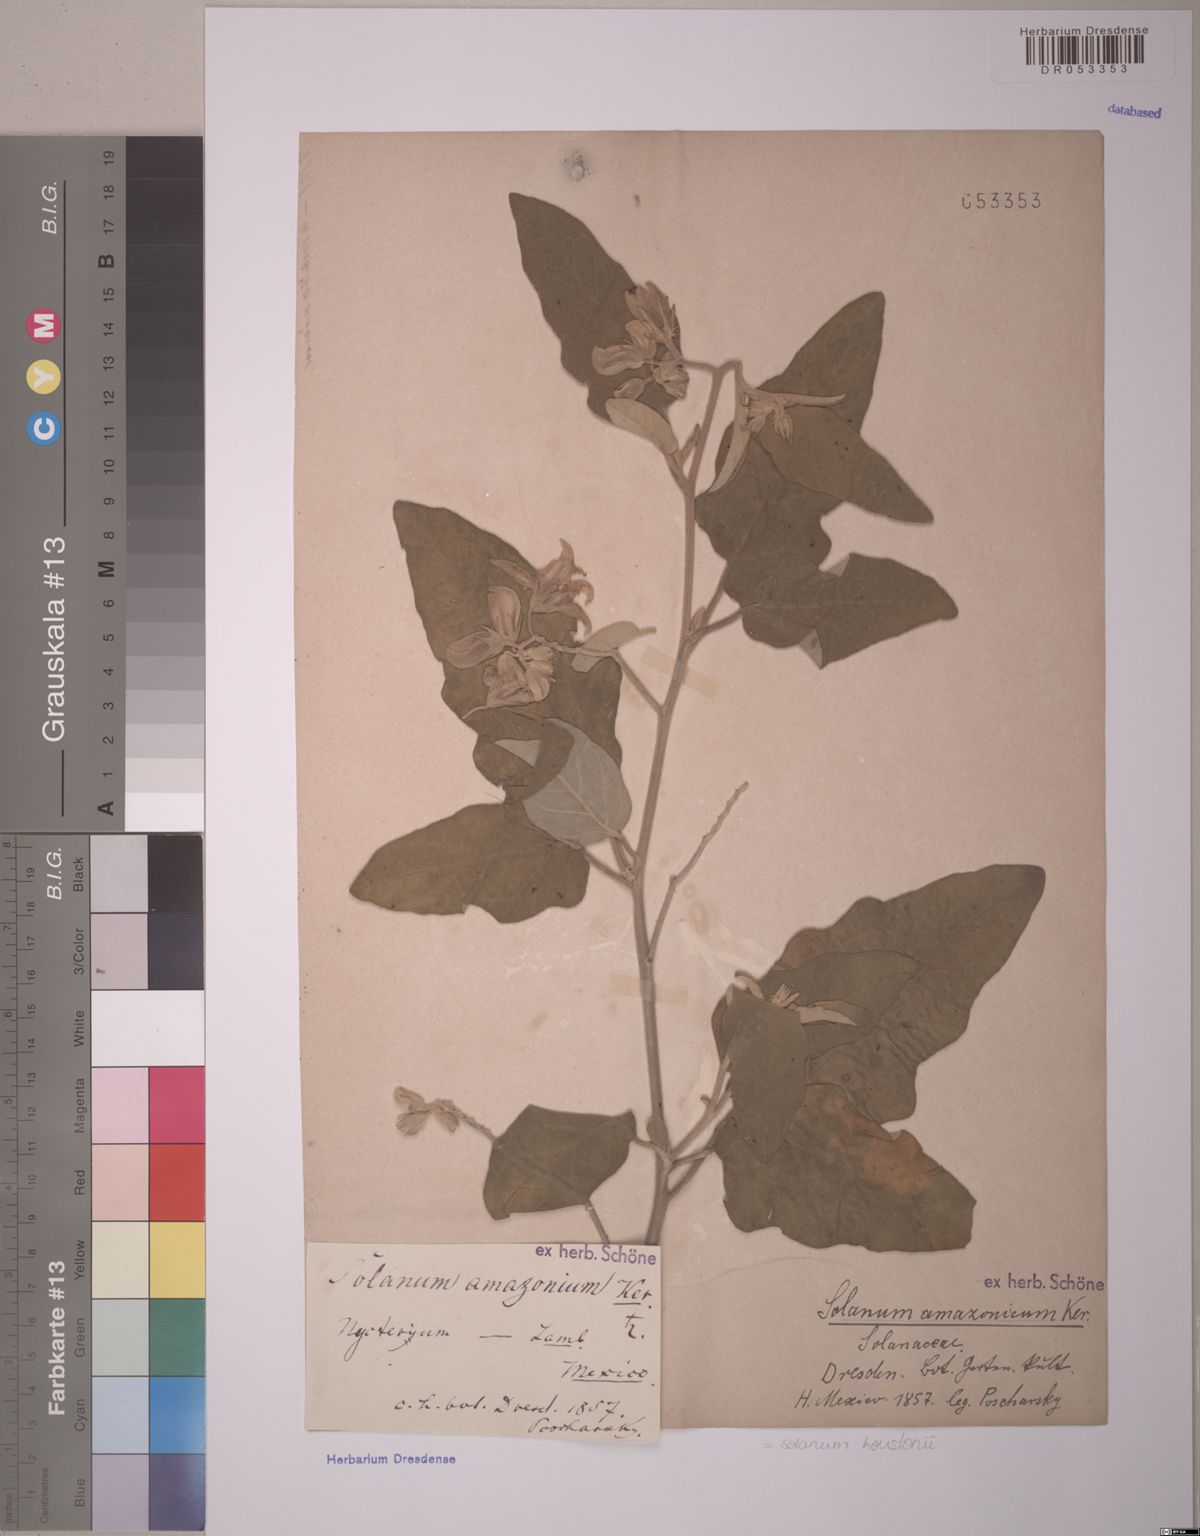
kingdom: Plantae
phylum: Tracheophyta
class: Magnoliopsida
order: Solanales
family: Solanaceae
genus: Solanum
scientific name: Solanum houstonii
